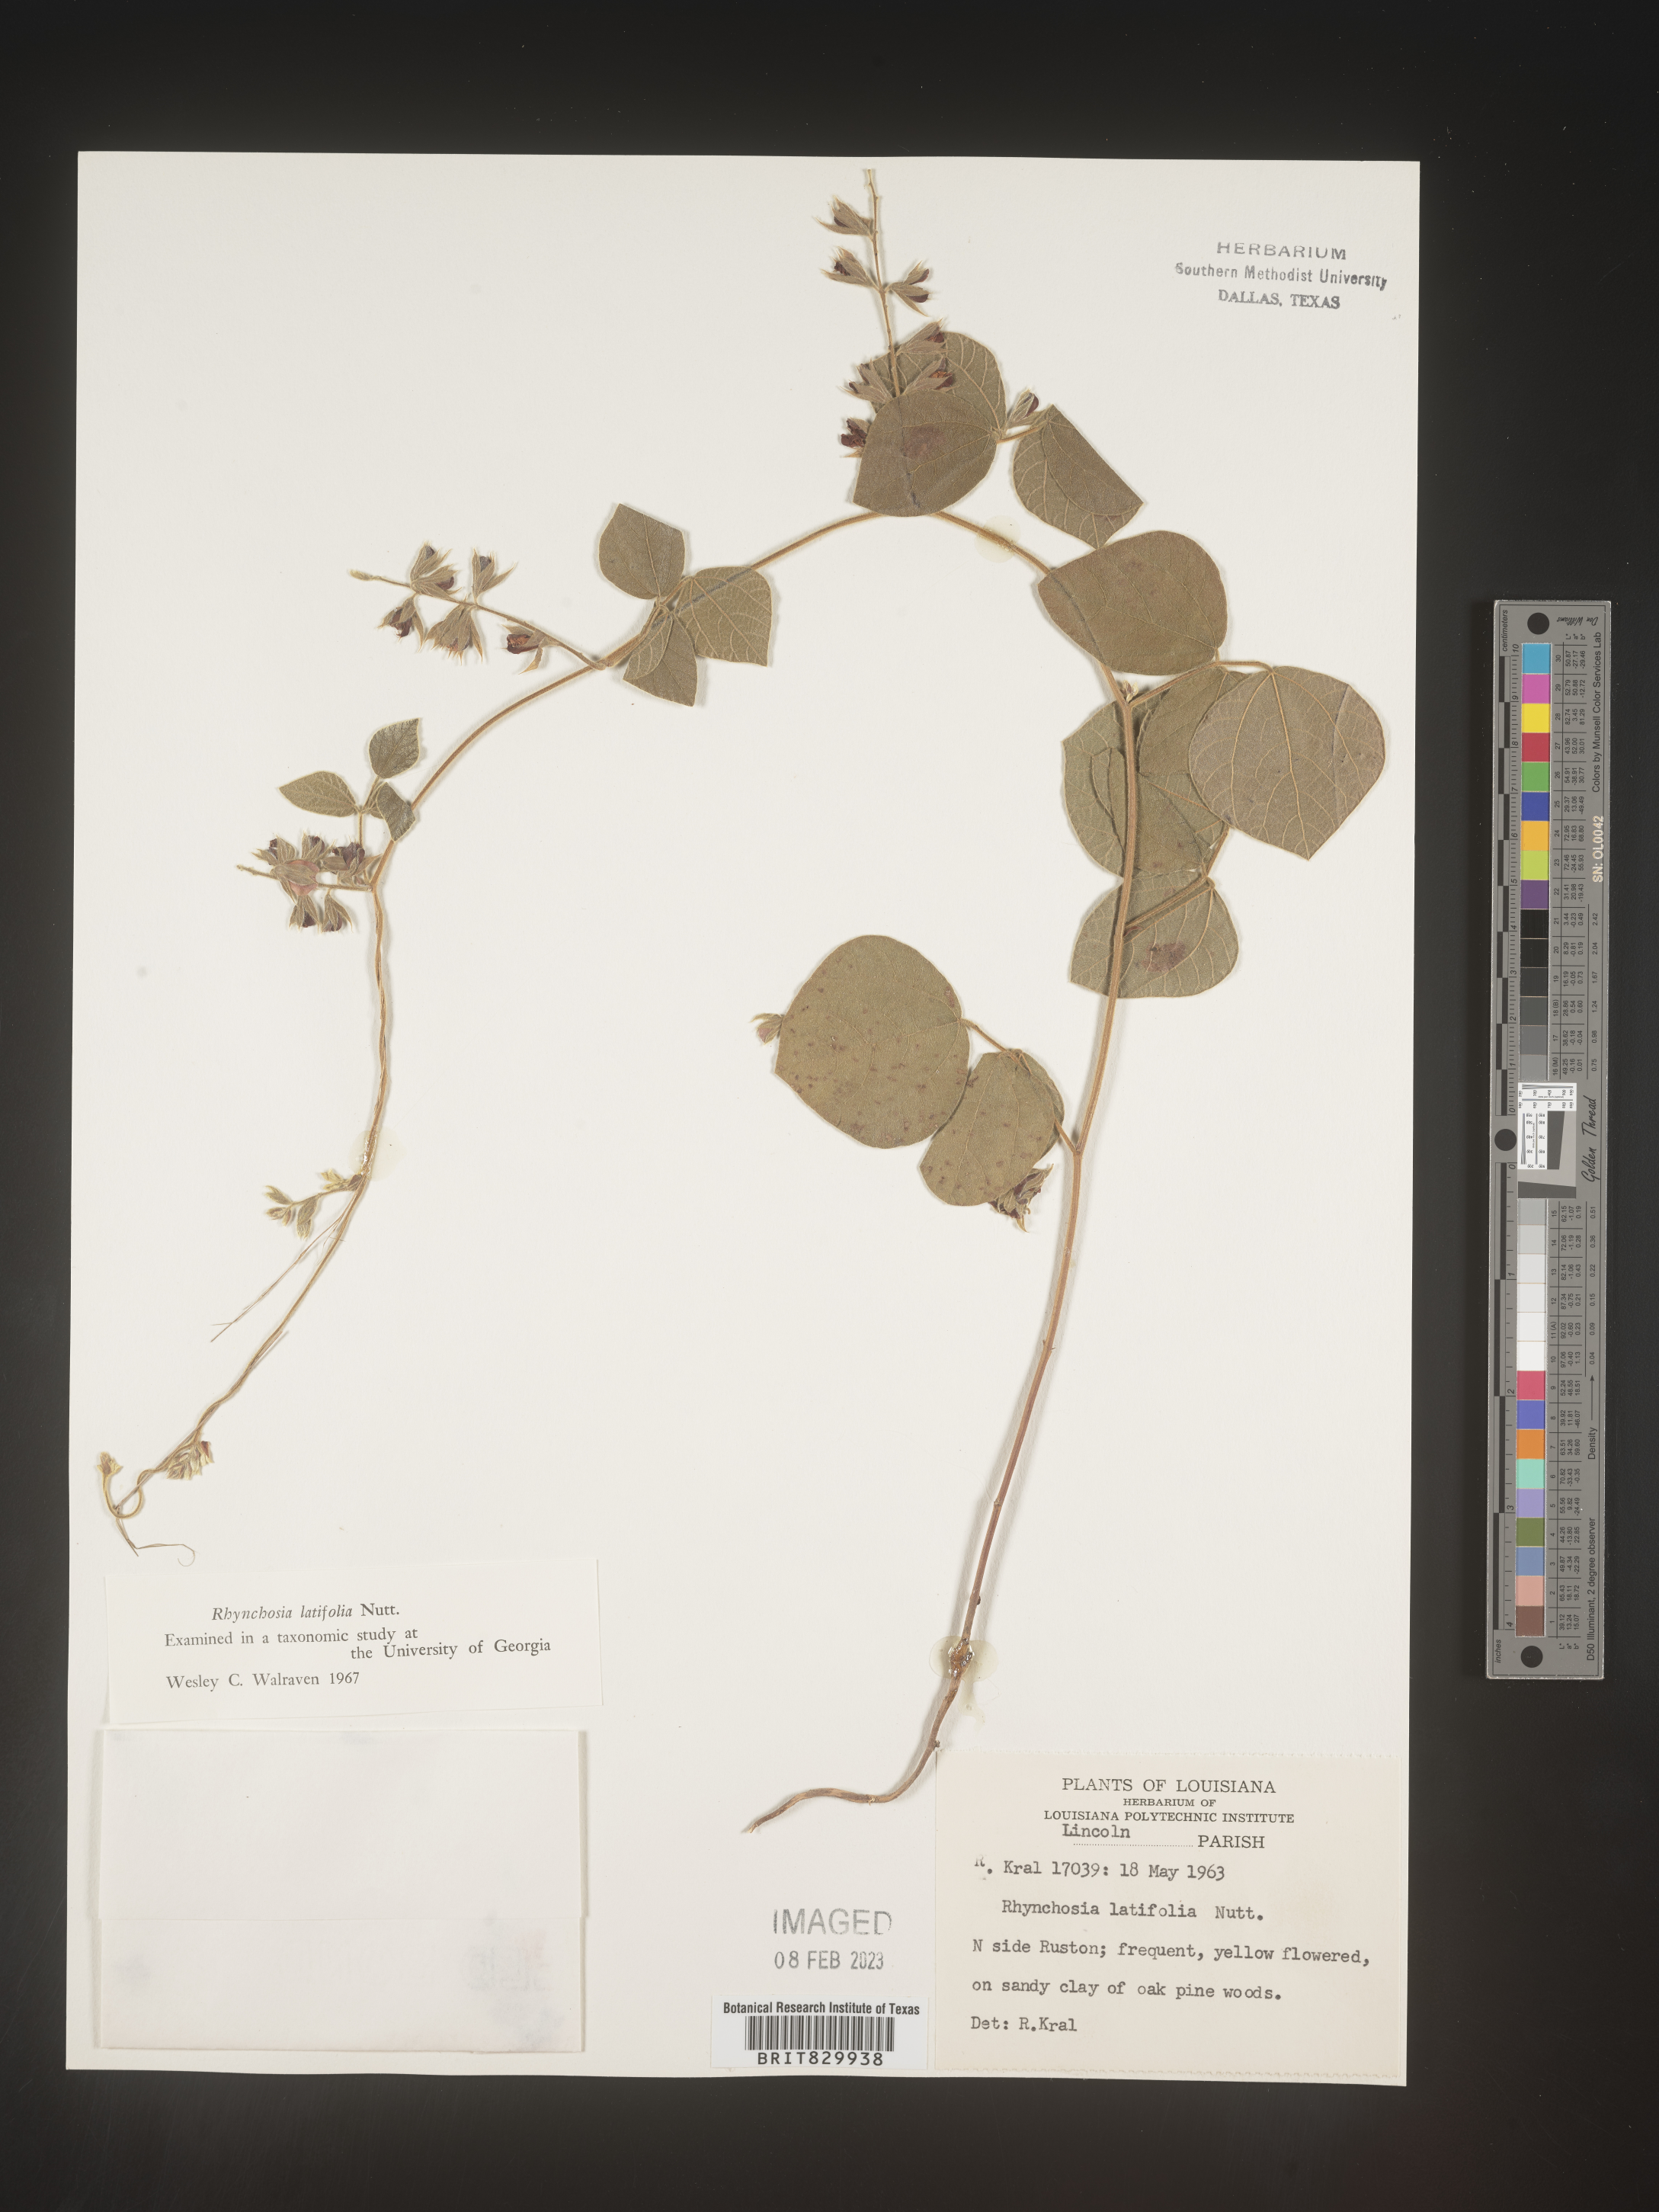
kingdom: Plantae
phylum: Tracheophyta
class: Magnoliopsida
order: Fabales
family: Fabaceae
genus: Rhynchosia
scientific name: Rhynchosia latifolia
